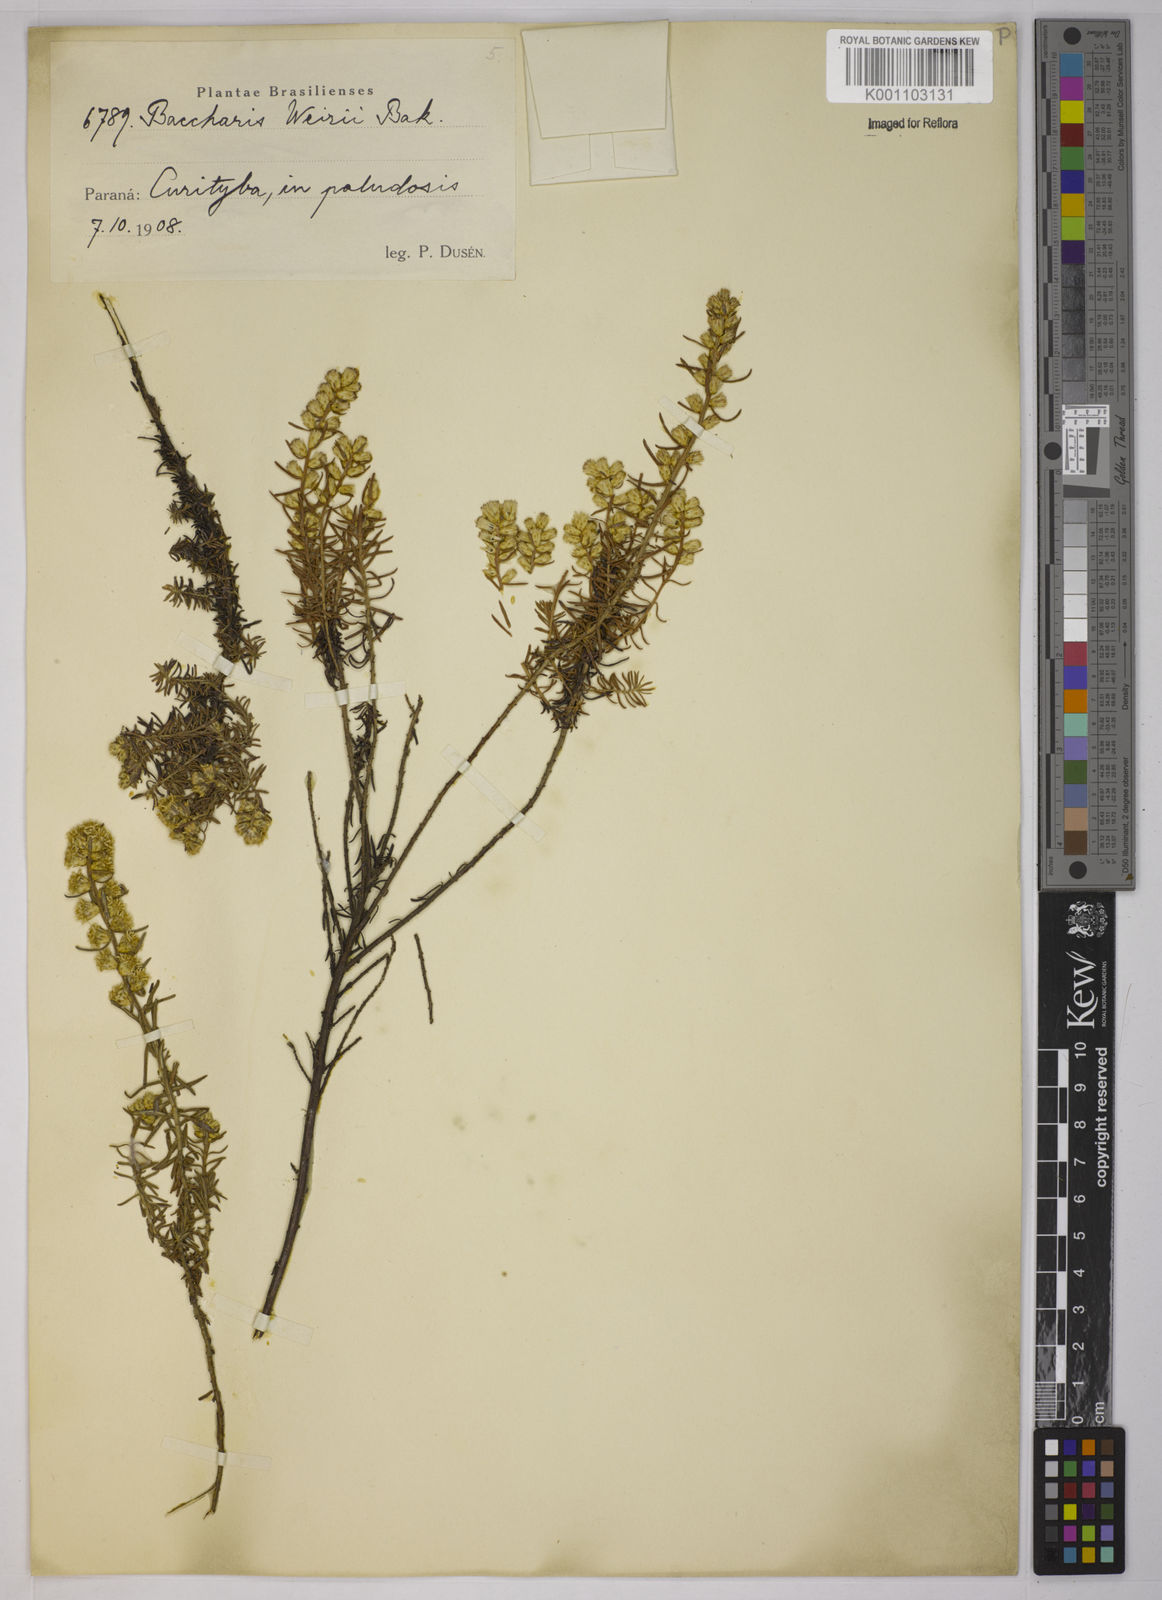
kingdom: Plantae
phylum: Tracheophyta
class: Magnoliopsida
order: Asterales
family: Asteraceae
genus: Baccharis
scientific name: Baccharis megapotamica
